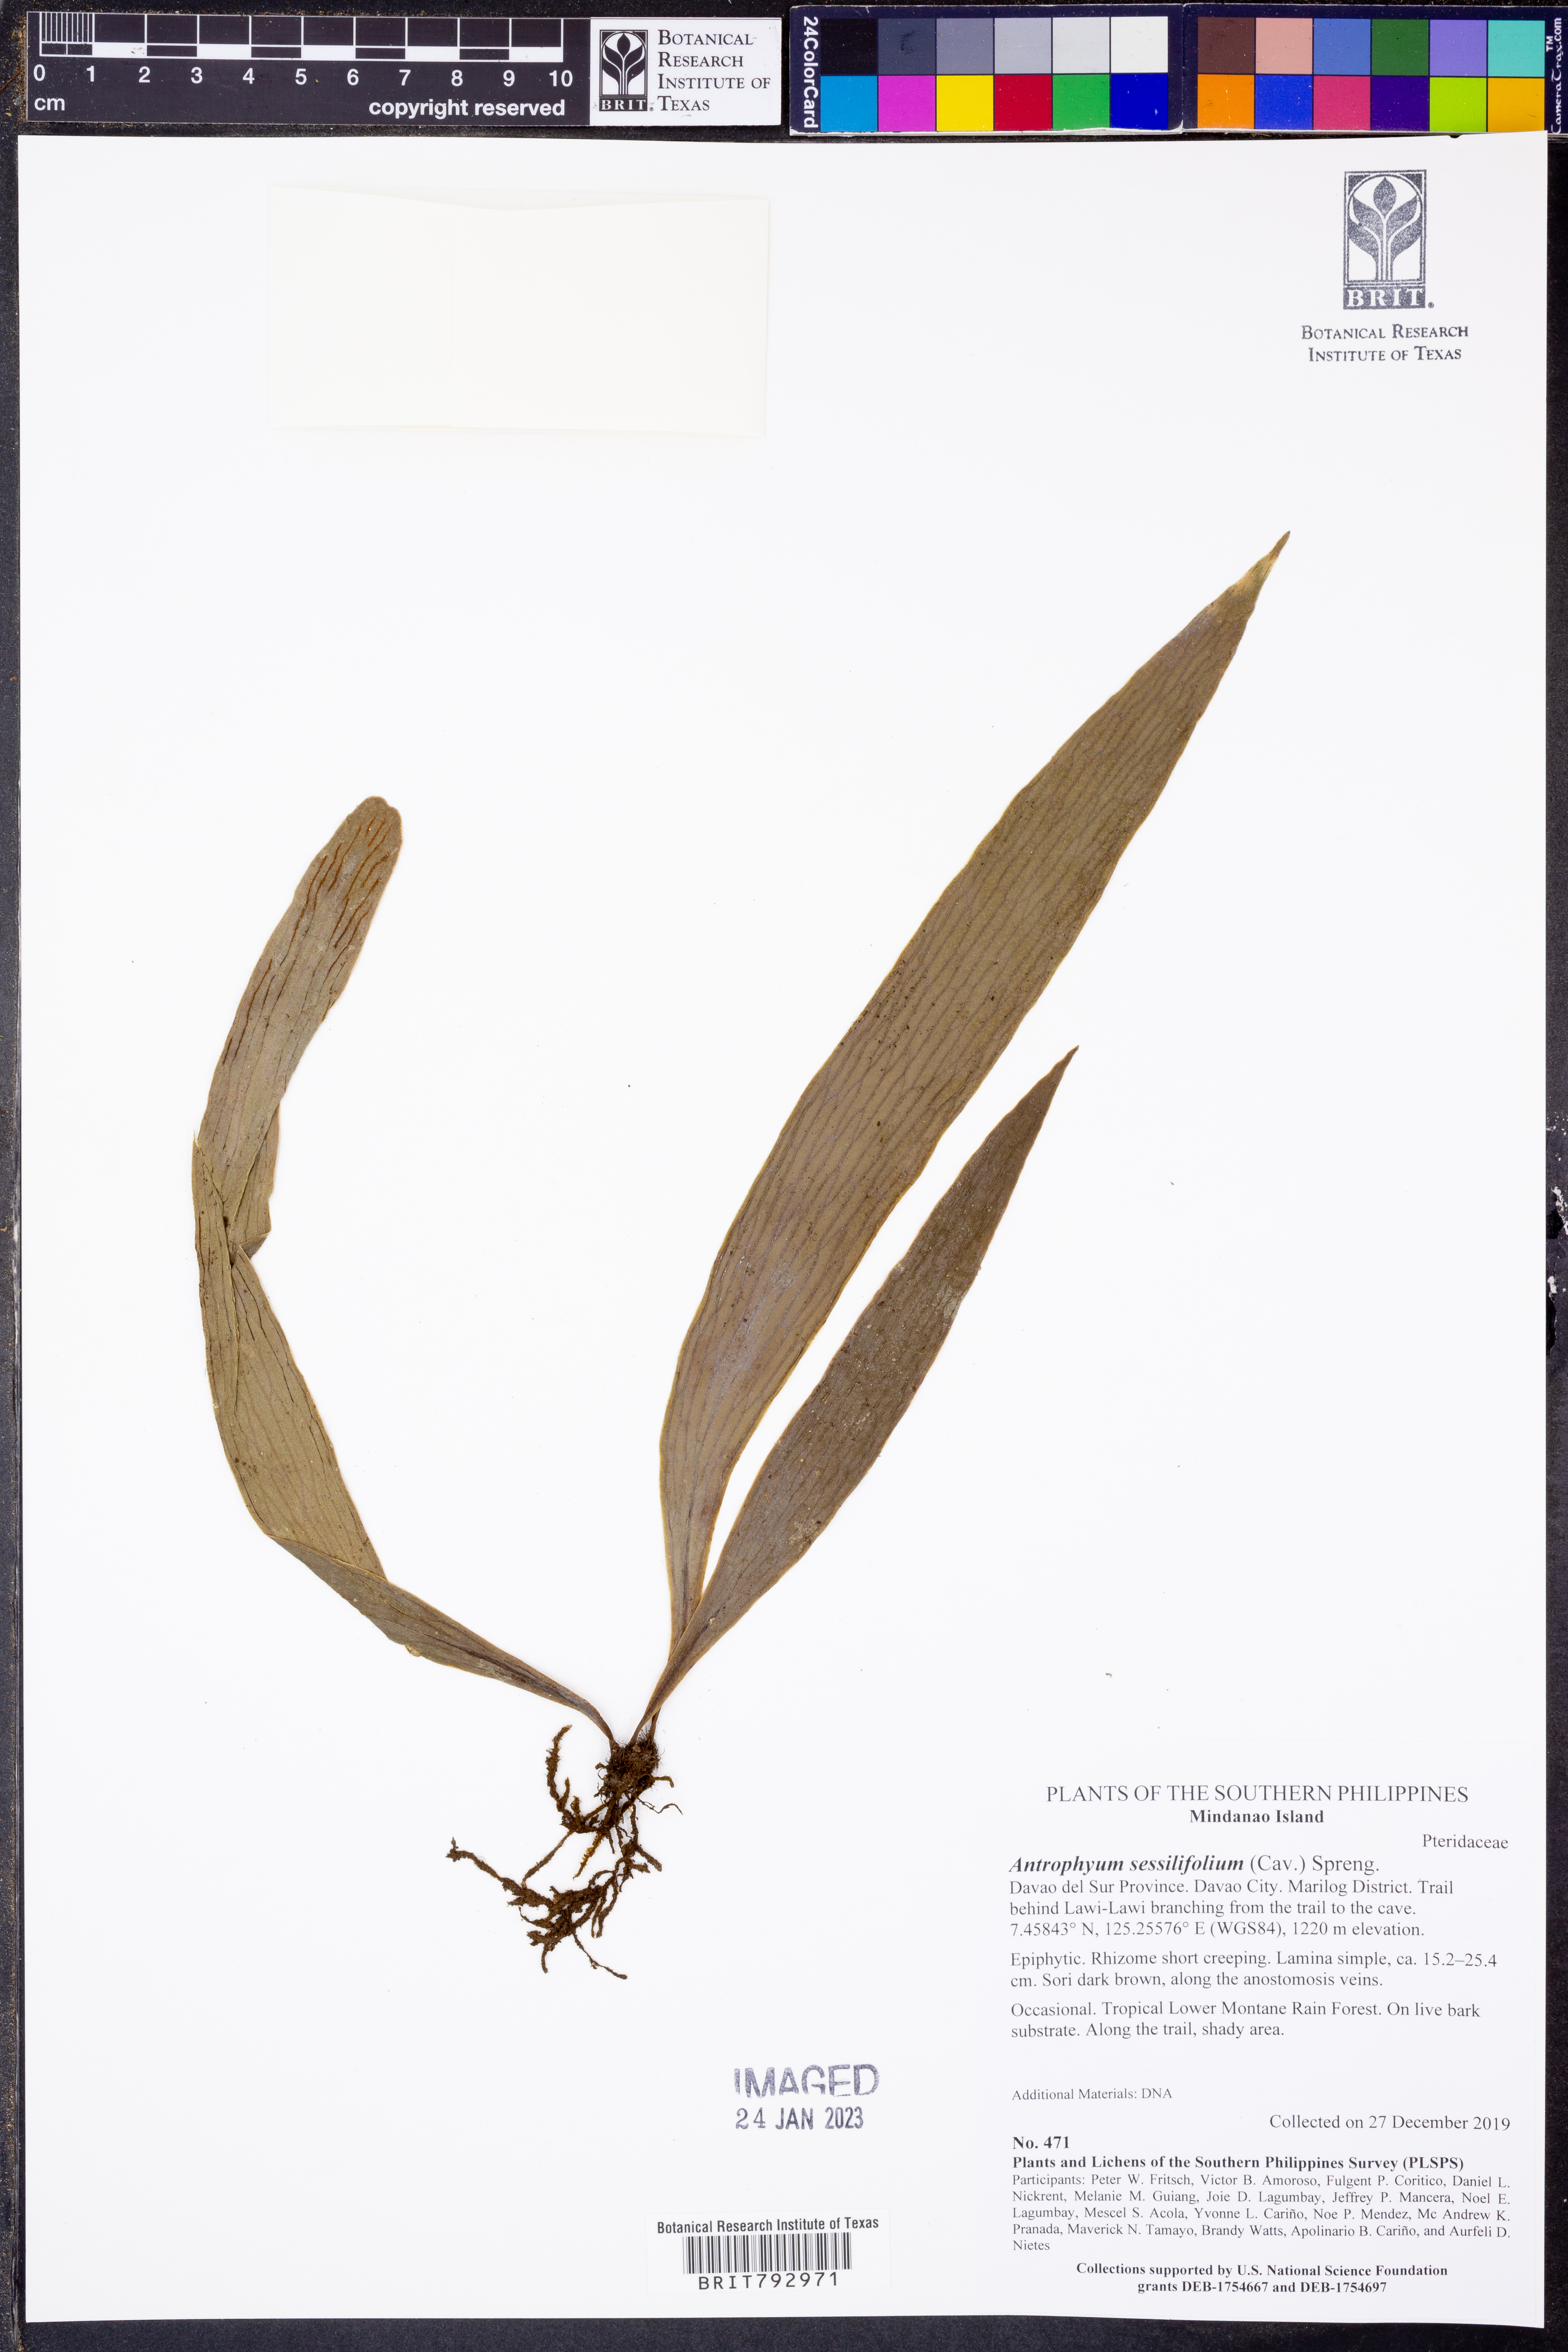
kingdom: Plantae
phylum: Tracheophyta
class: Polypodiopsida
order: Polypodiales
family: Pteridaceae
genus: Antrophyum
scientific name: Antrophyum sessilifolium
